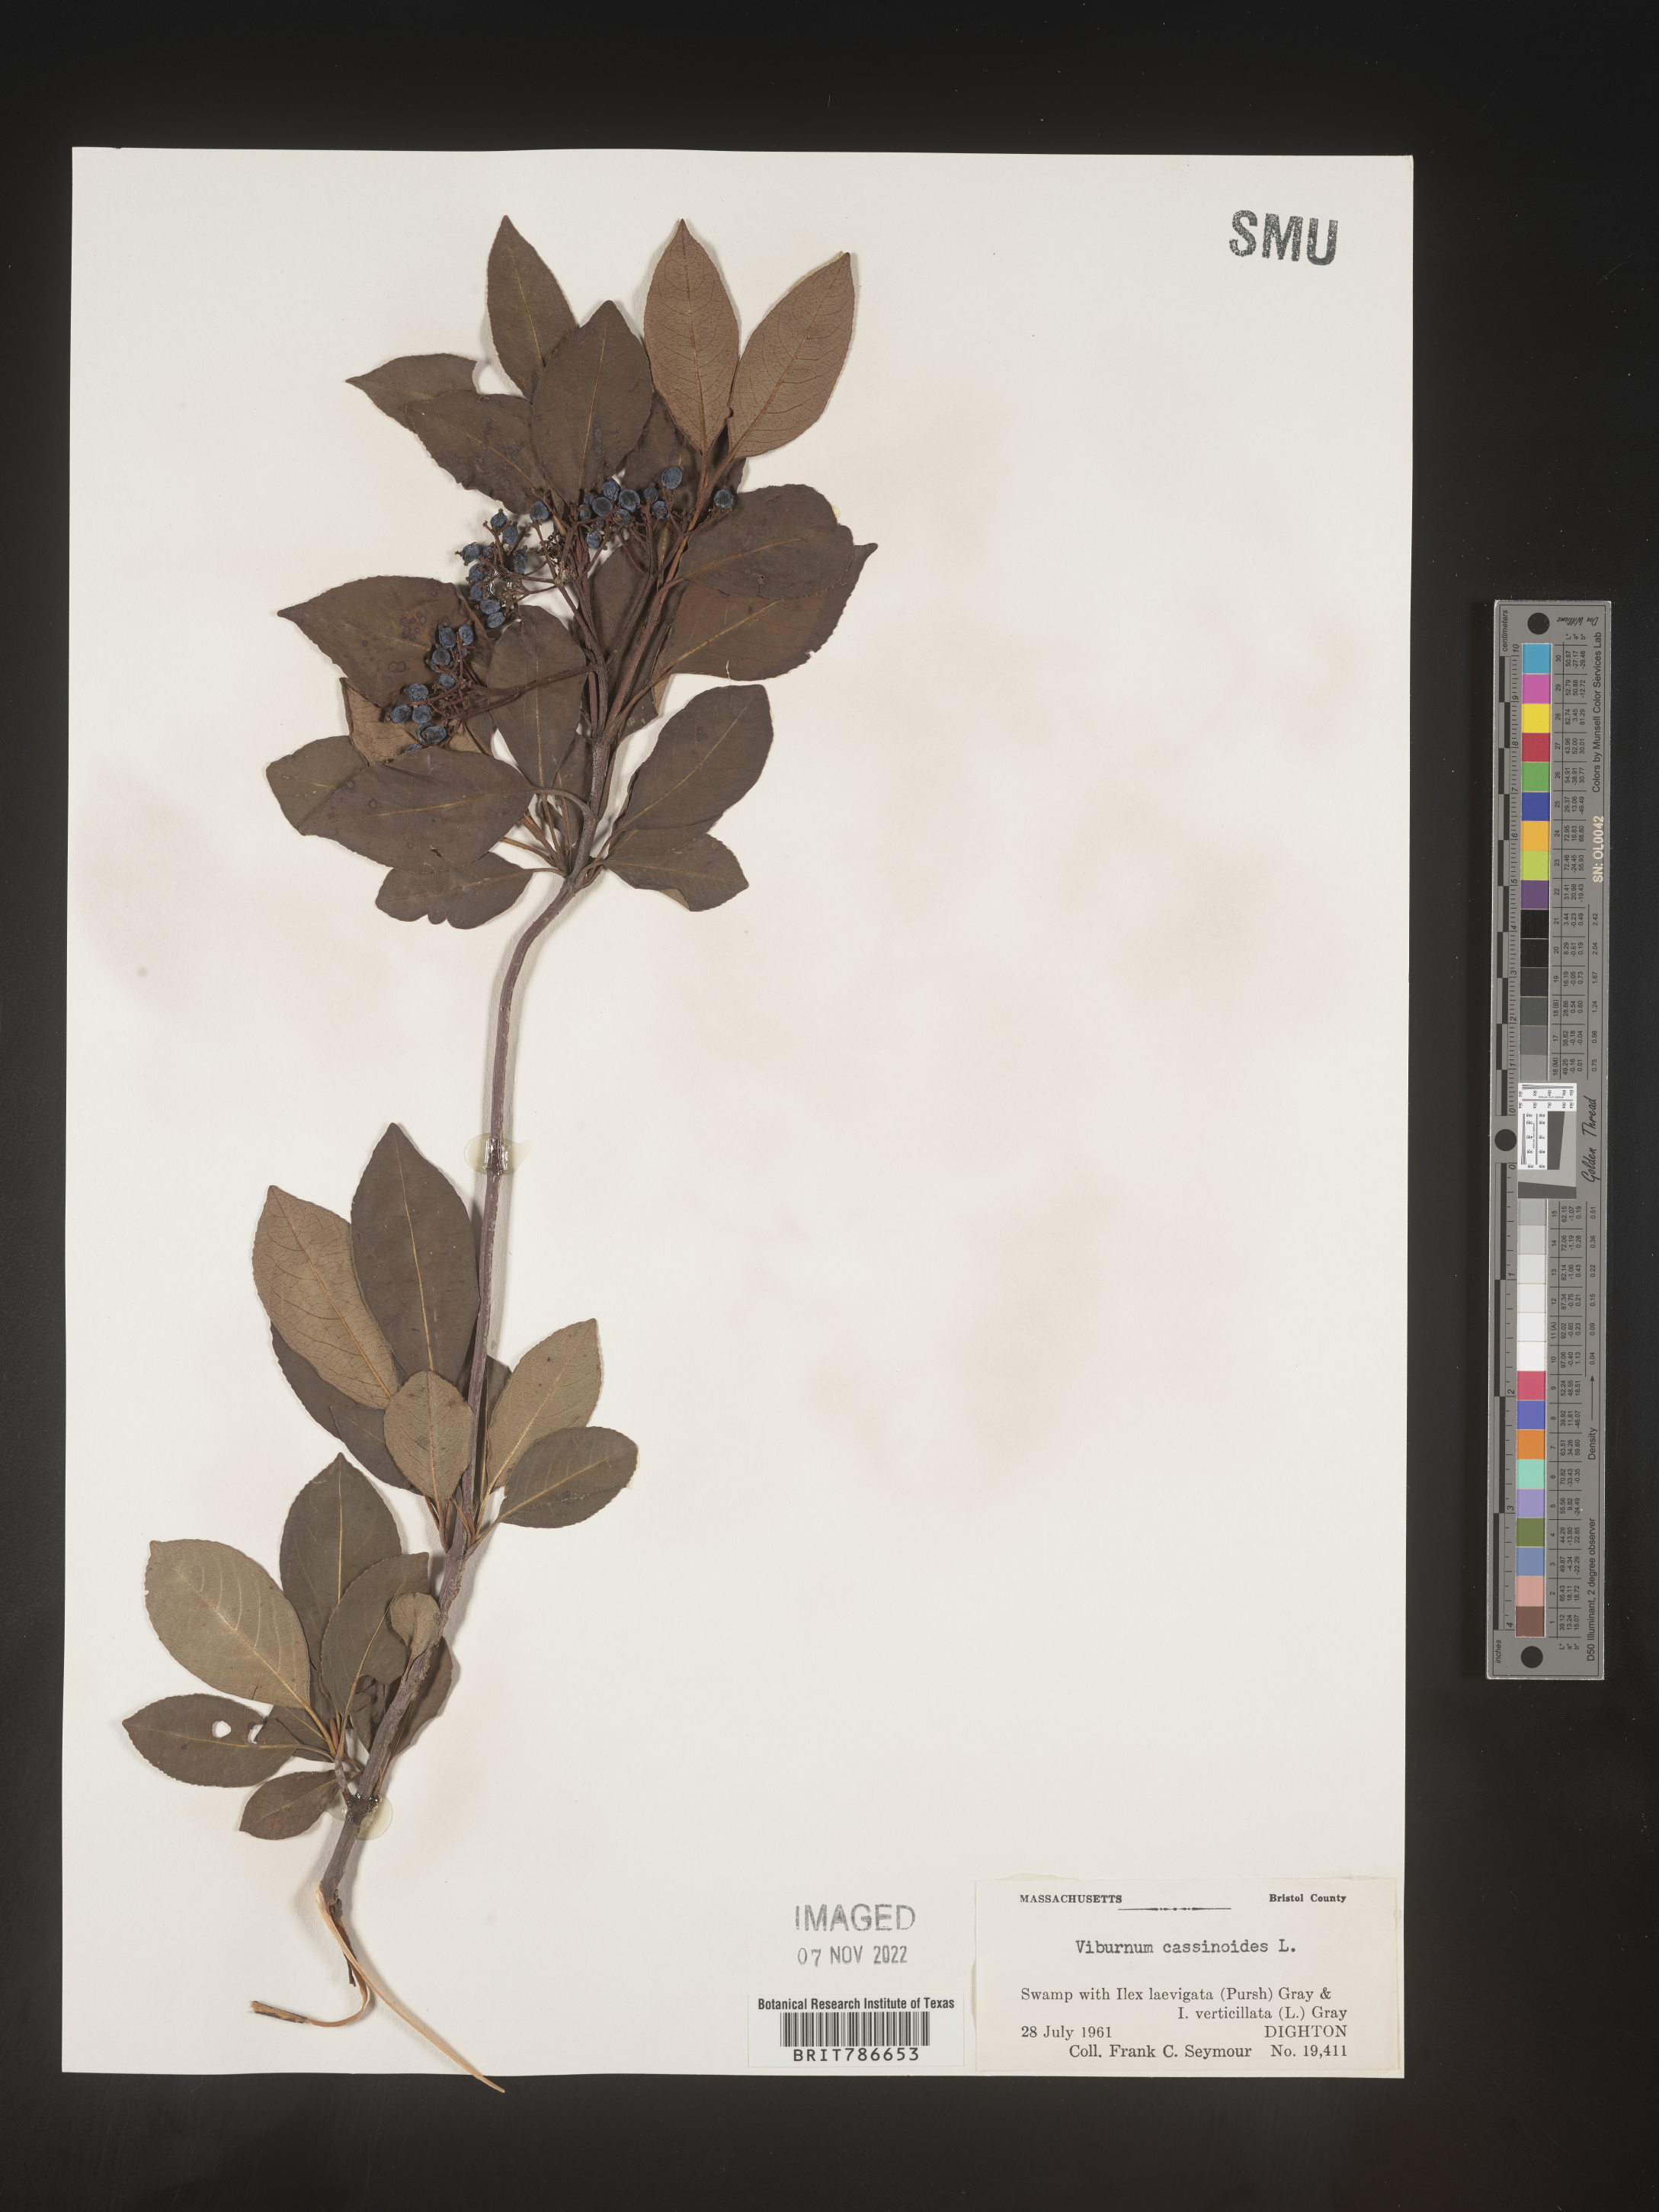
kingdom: Plantae
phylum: Tracheophyta
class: Magnoliopsida
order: Dipsacales
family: Viburnaceae
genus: Viburnum
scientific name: Viburnum cassinoides
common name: Swamp haw
